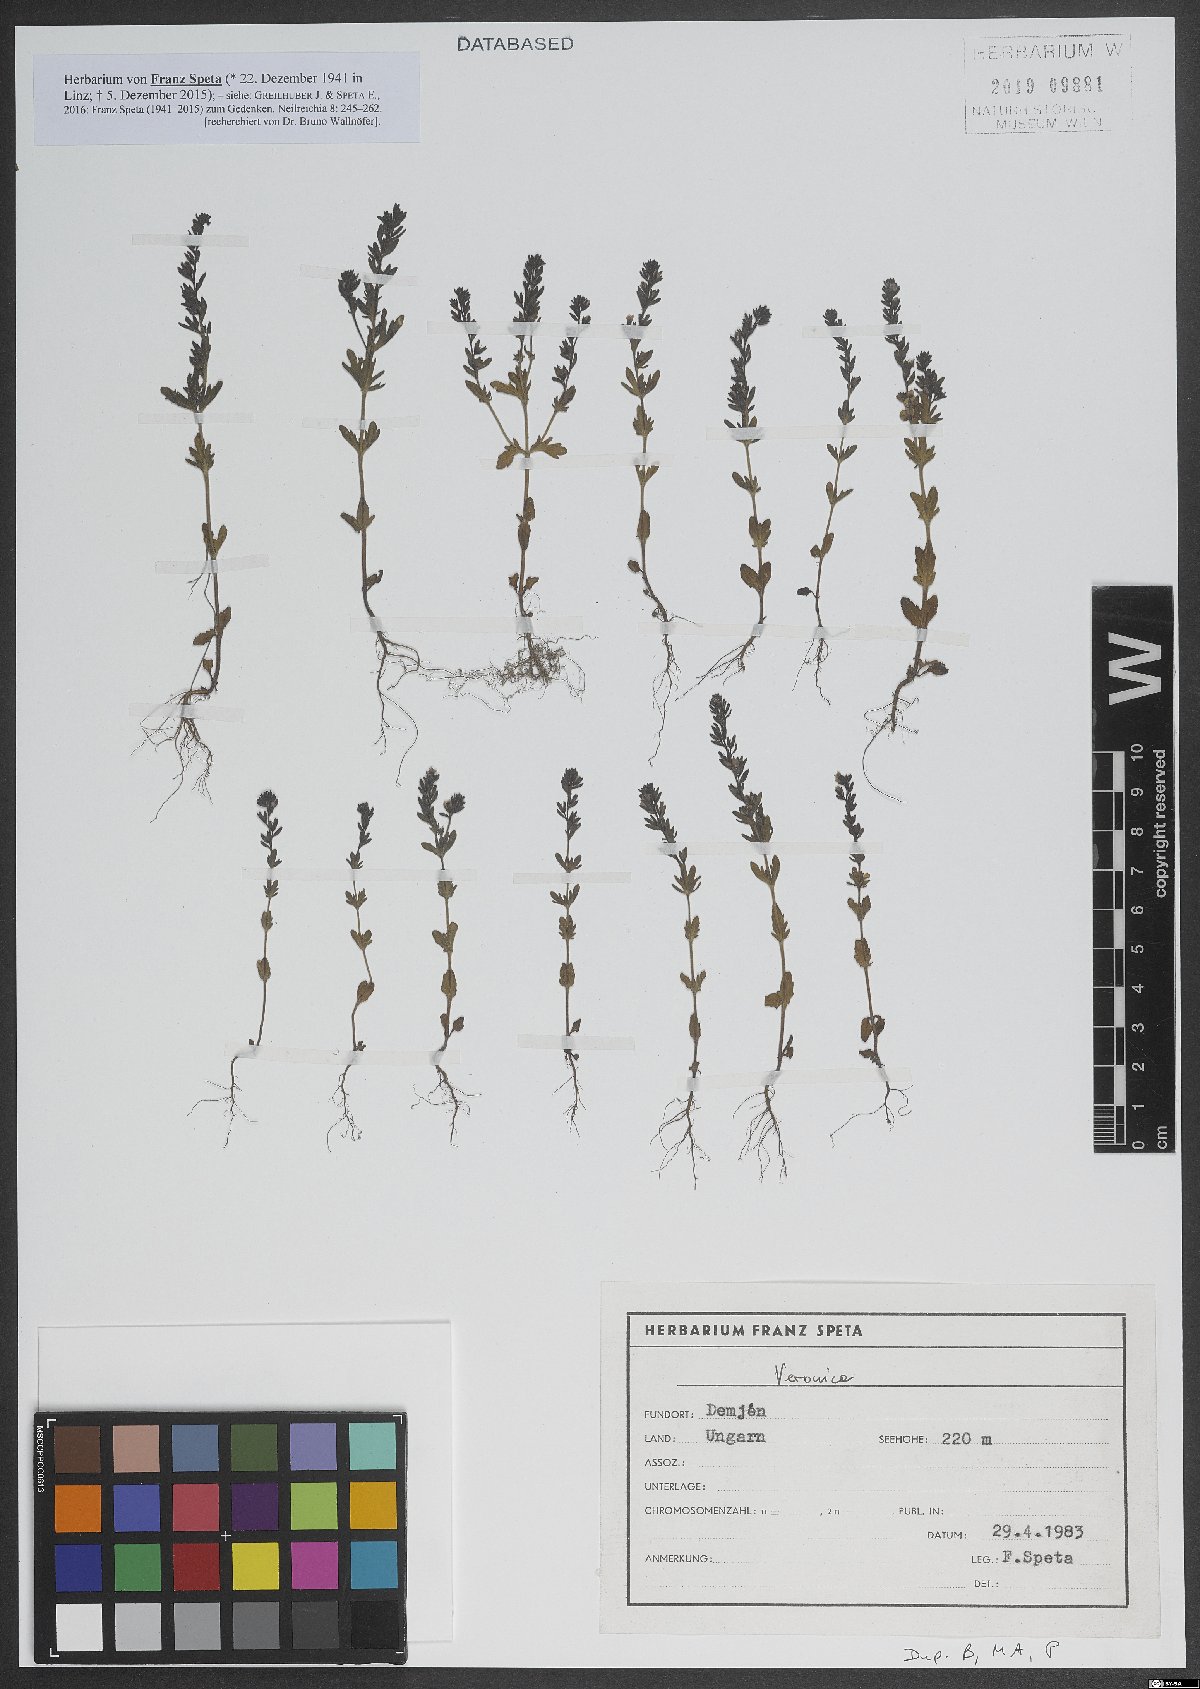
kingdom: Plantae
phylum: Tracheophyta
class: Magnoliopsida
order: Lamiales
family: Plantaginaceae
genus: Veronica
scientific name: Veronica
